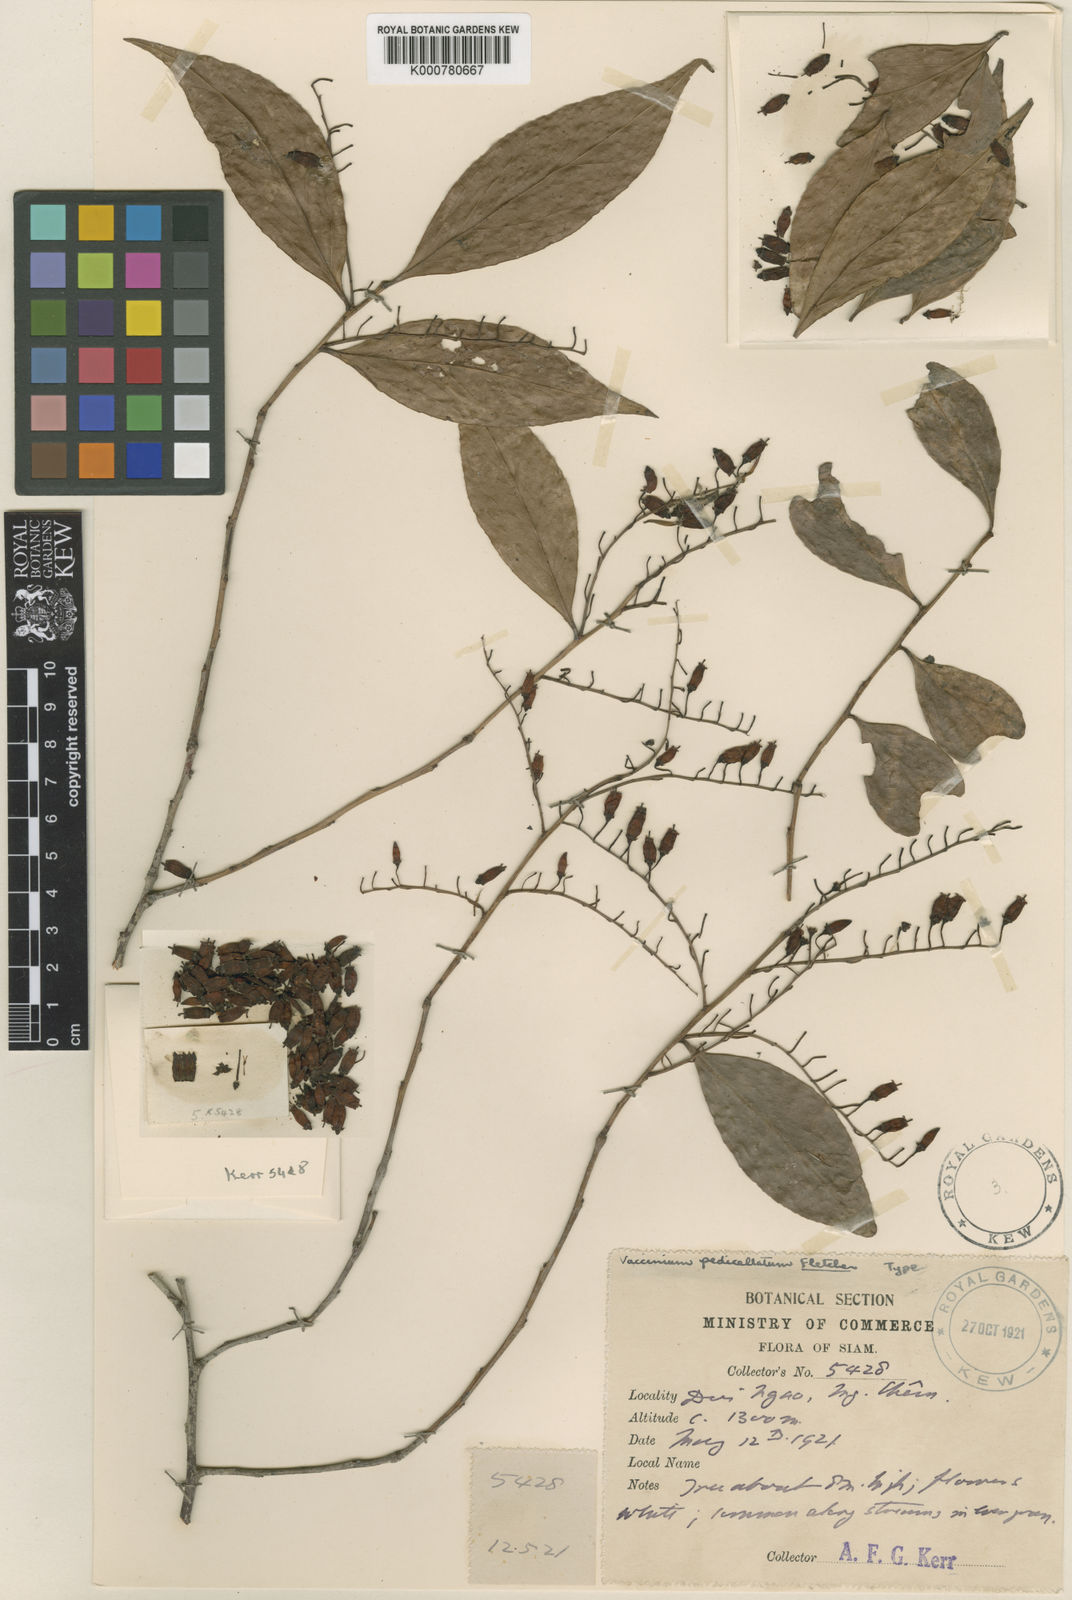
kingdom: Plantae
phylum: Tracheophyta
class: Magnoliopsida
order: Ericales
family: Ericaceae
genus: Vaccinium
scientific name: Vaccinium sprengelii
